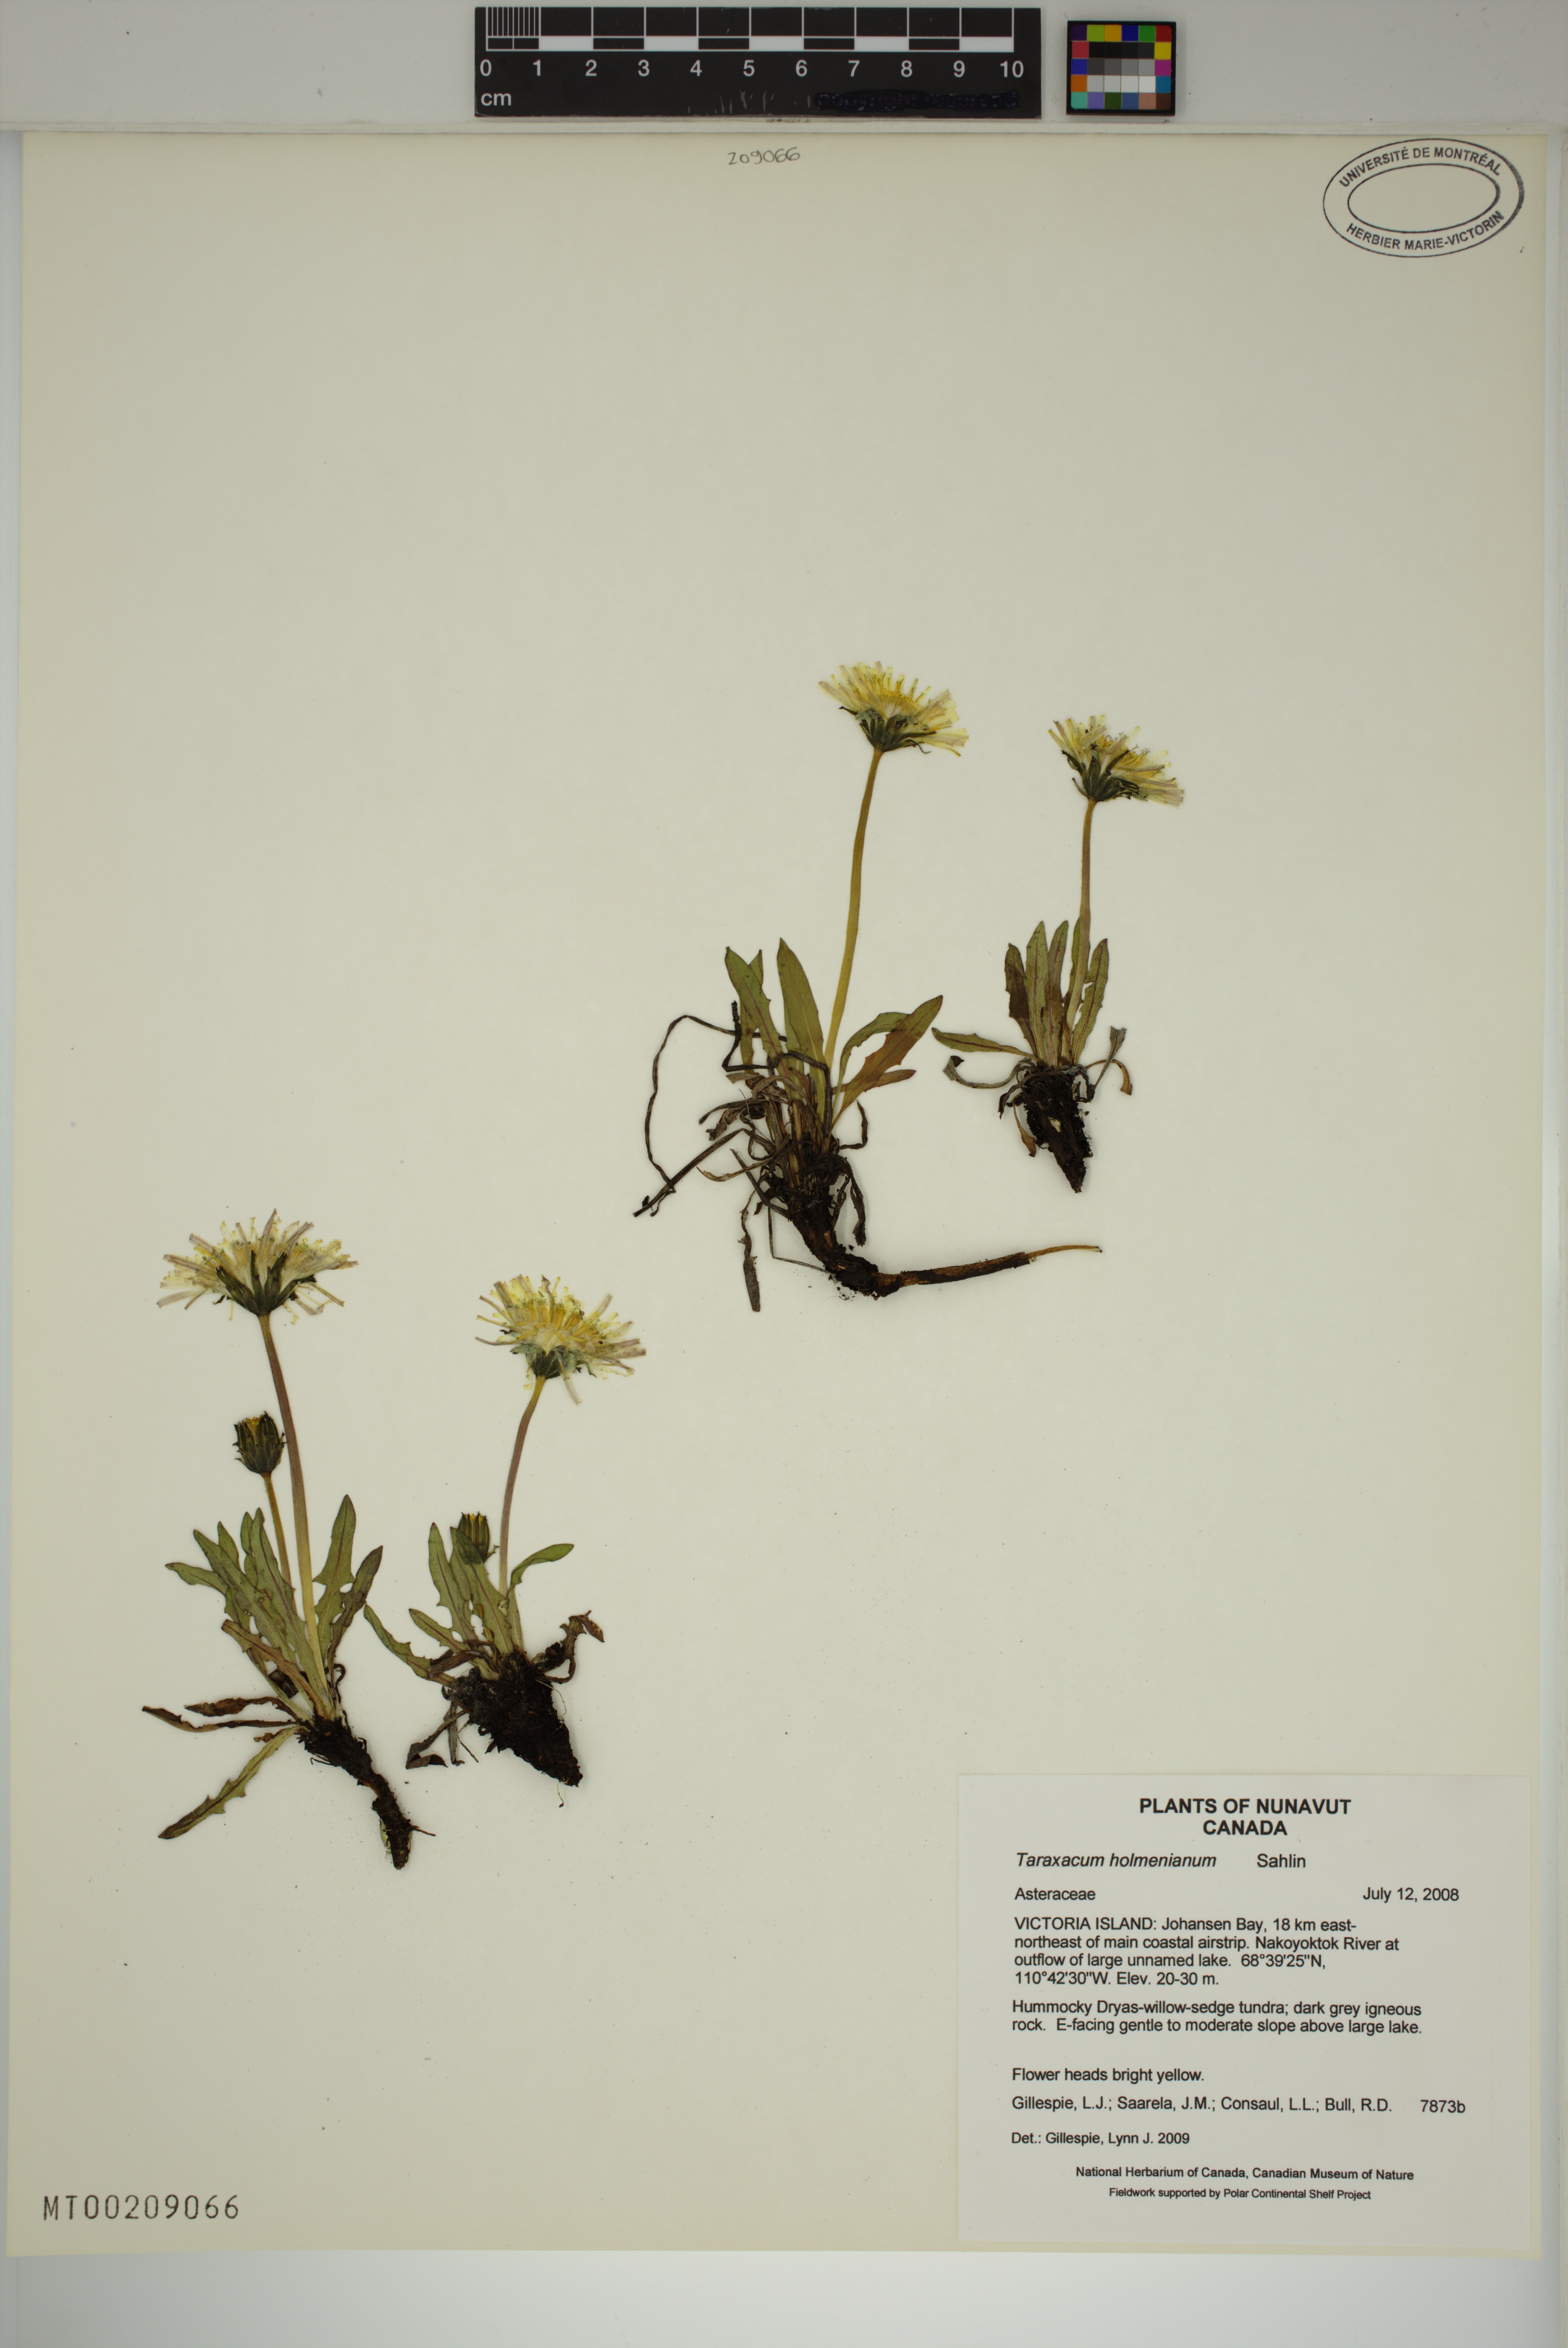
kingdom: Plantae
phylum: Tracheophyta
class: Magnoliopsida
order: Asterales
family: Asteraceae
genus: Taraxacum
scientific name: Taraxacum holmenianum
